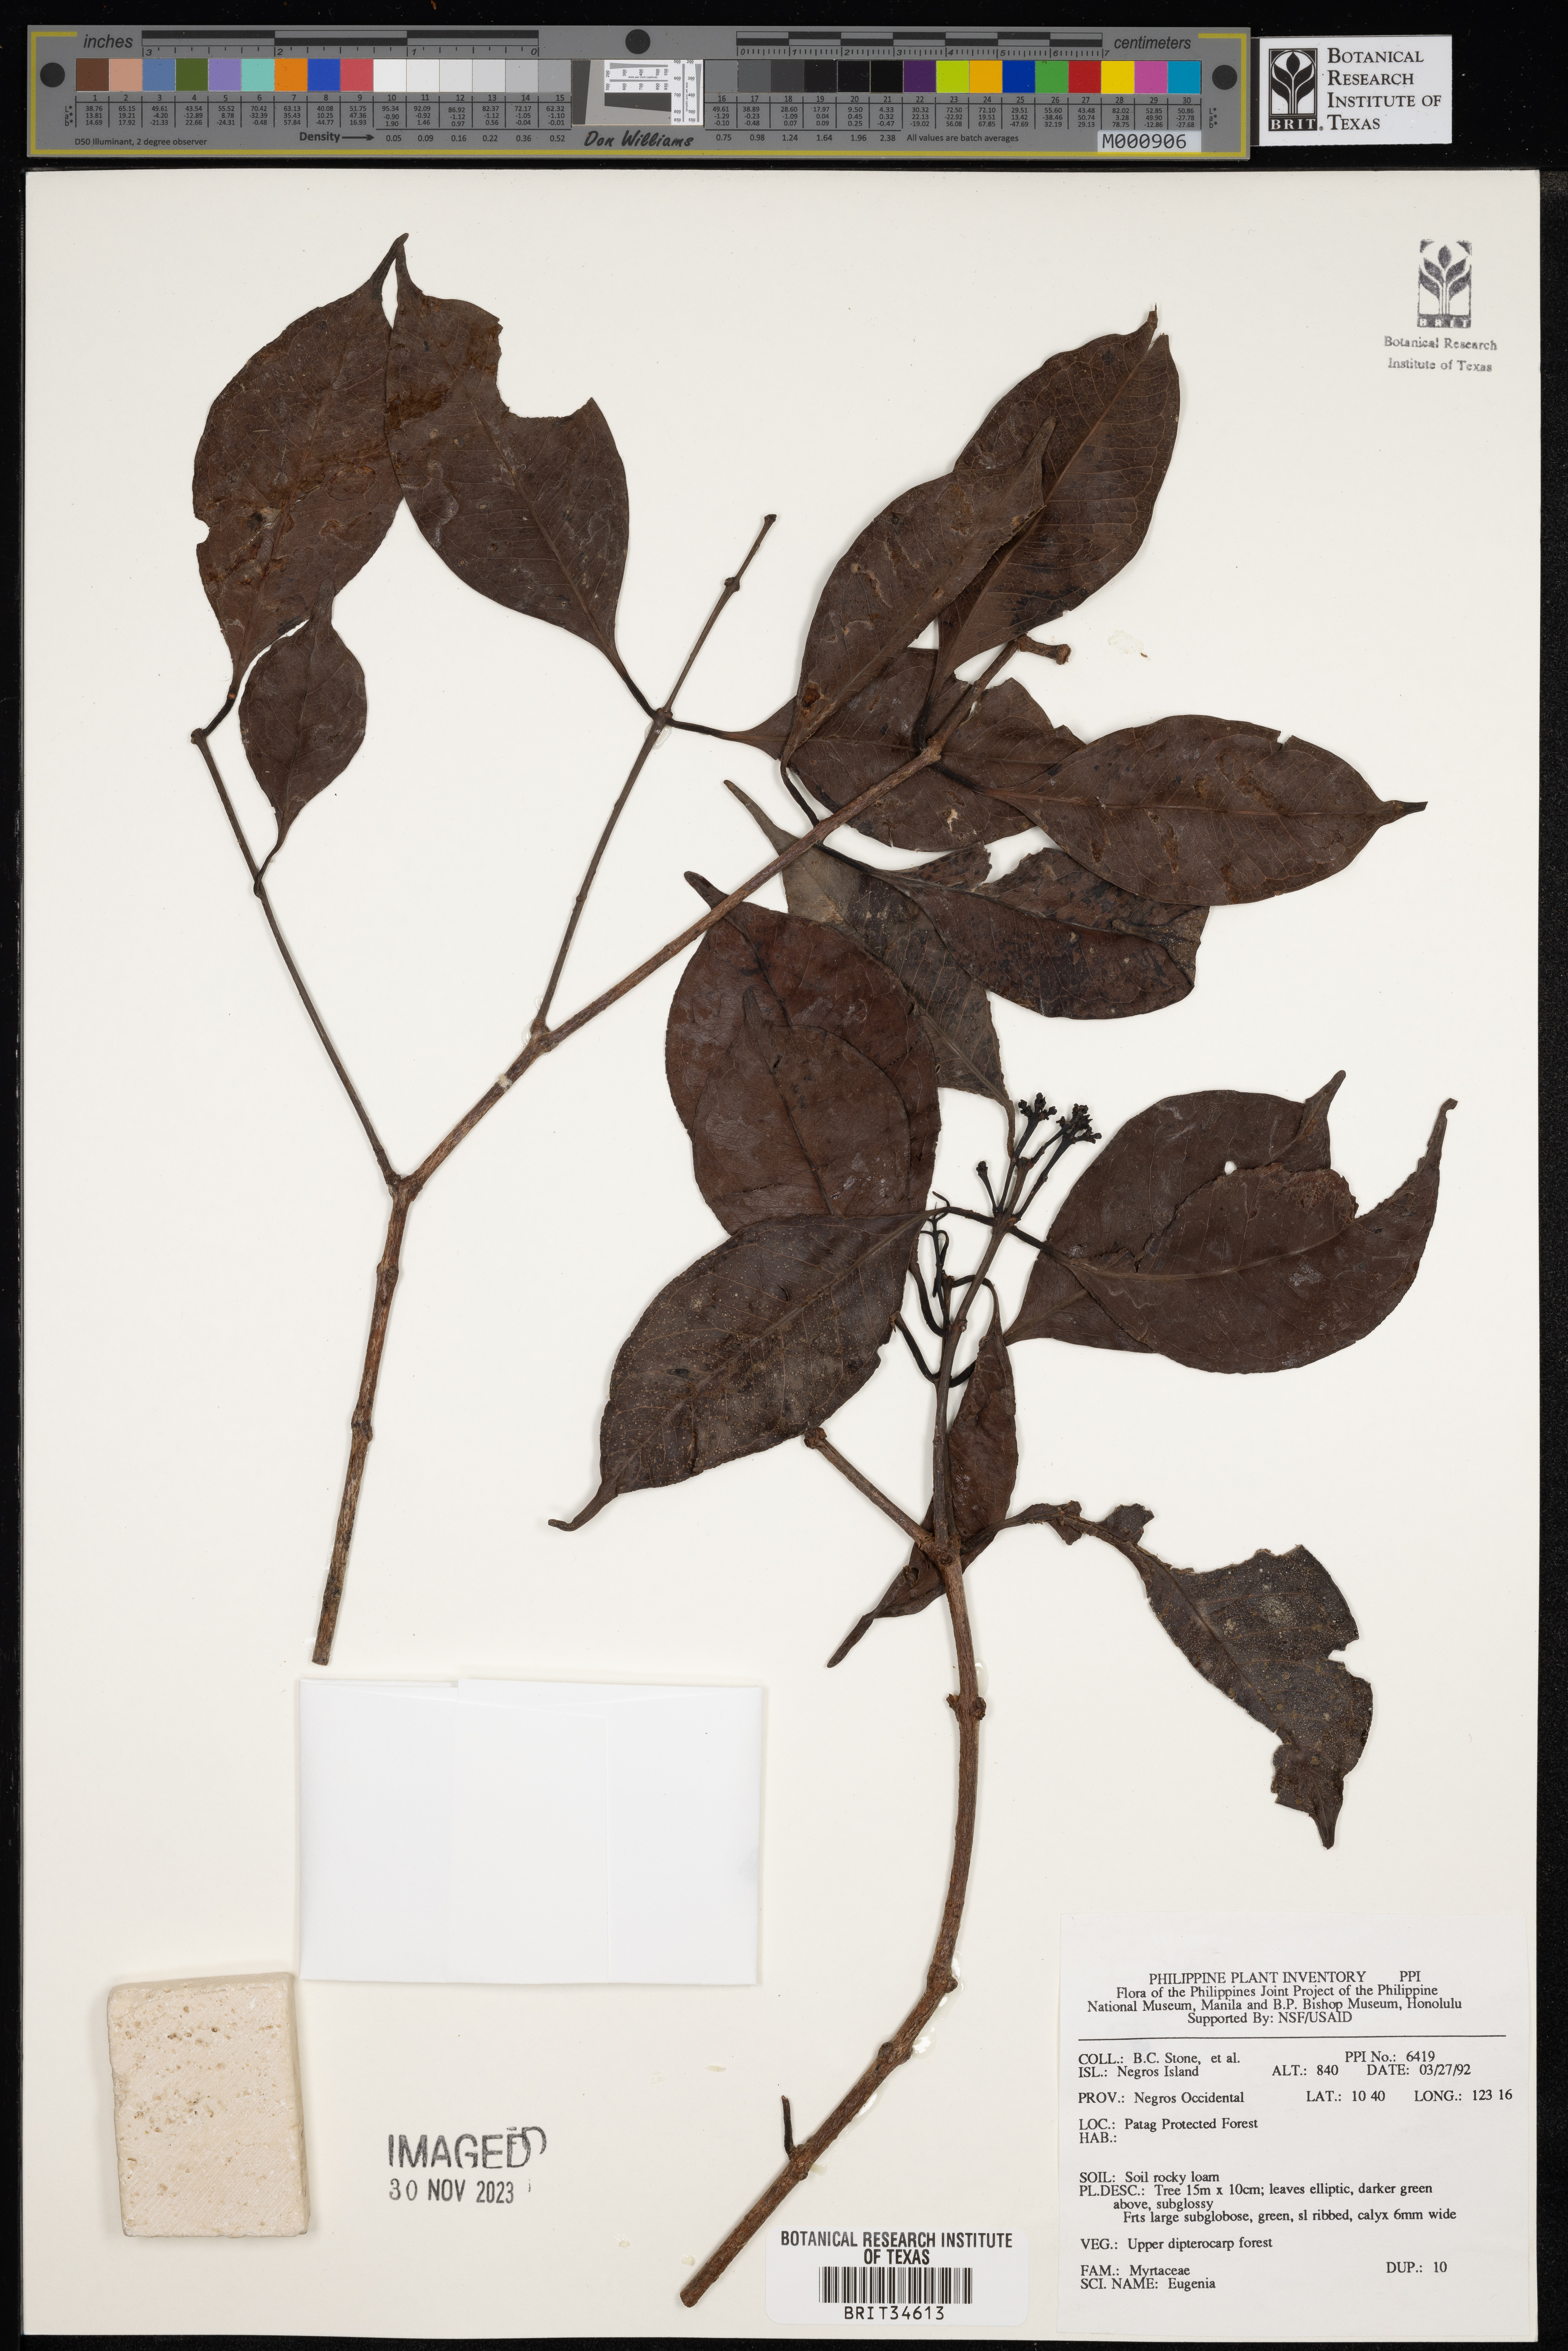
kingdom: Plantae
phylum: Tracheophyta
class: Magnoliopsida
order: Myrtales
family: Myrtaceae
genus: Eugenia
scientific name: Eugenia
